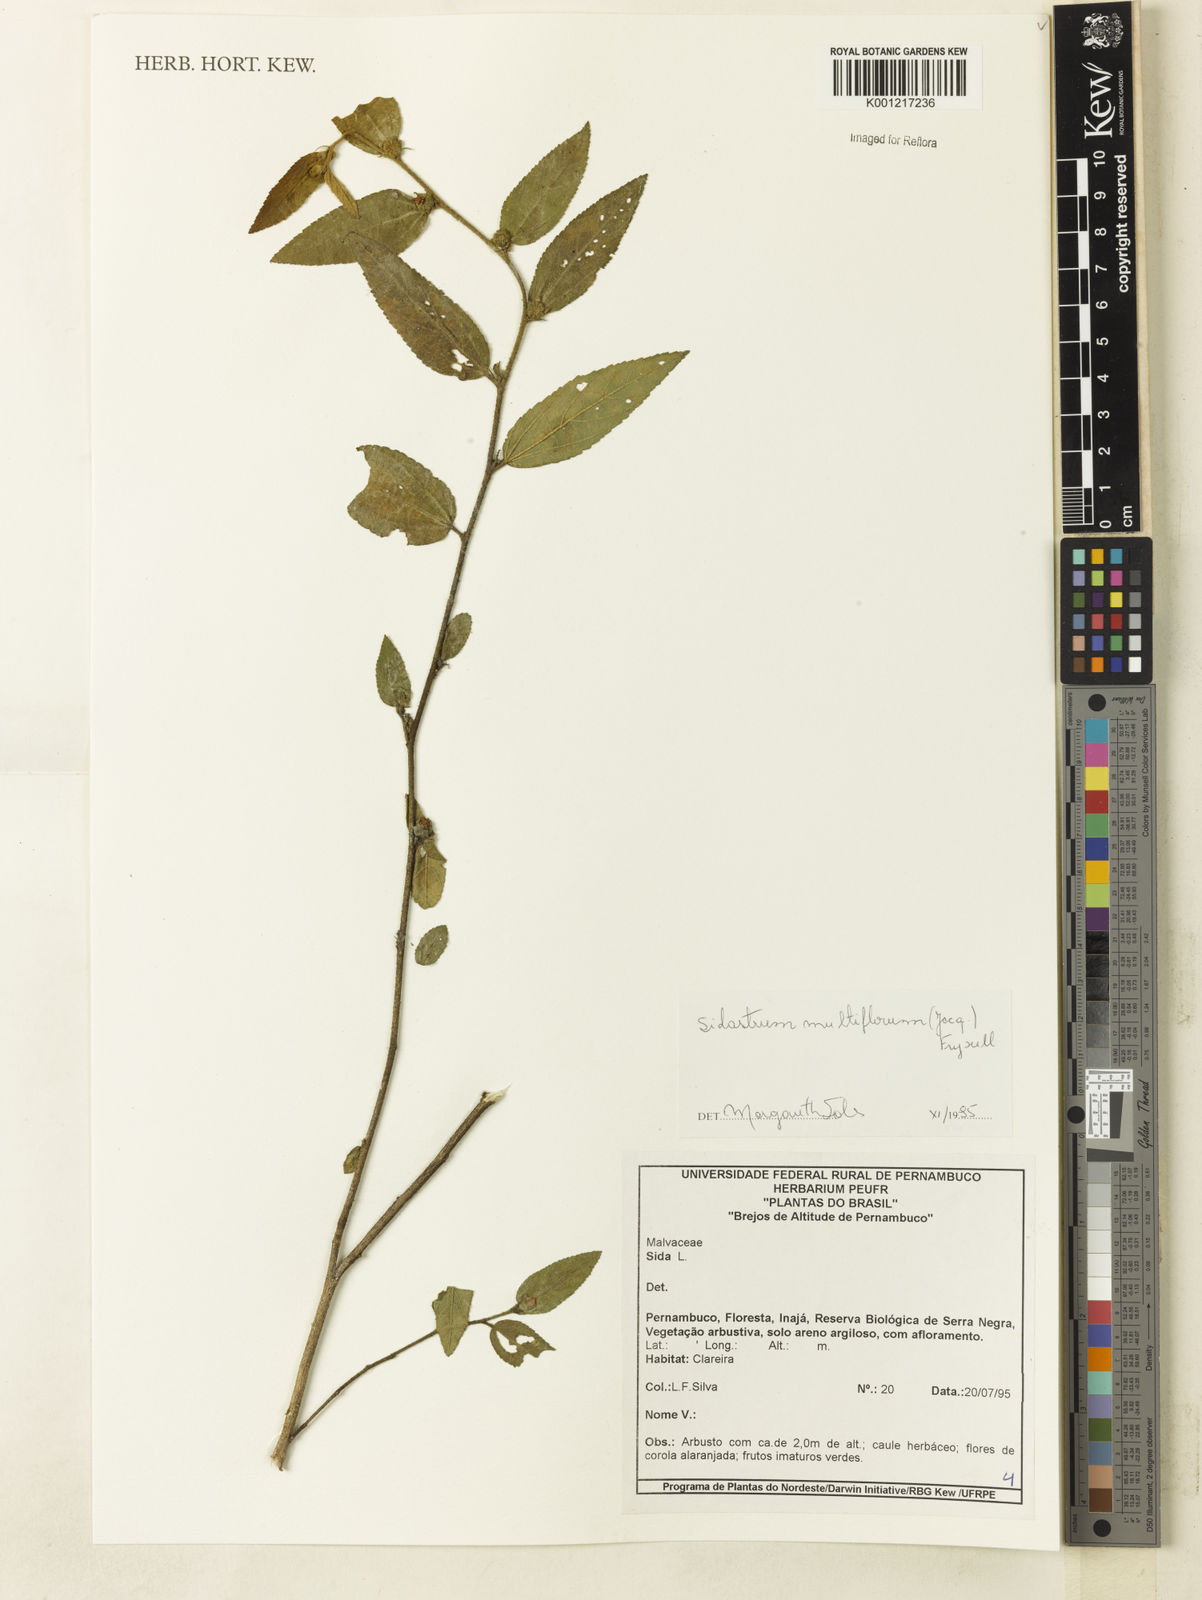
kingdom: Plantae
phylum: Tracheophyta
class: Magnoliopsida
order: Malvales
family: Malvaceae
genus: Sidastrum
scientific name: Sidastrum multiflorum
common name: Manyflower sandmallow
